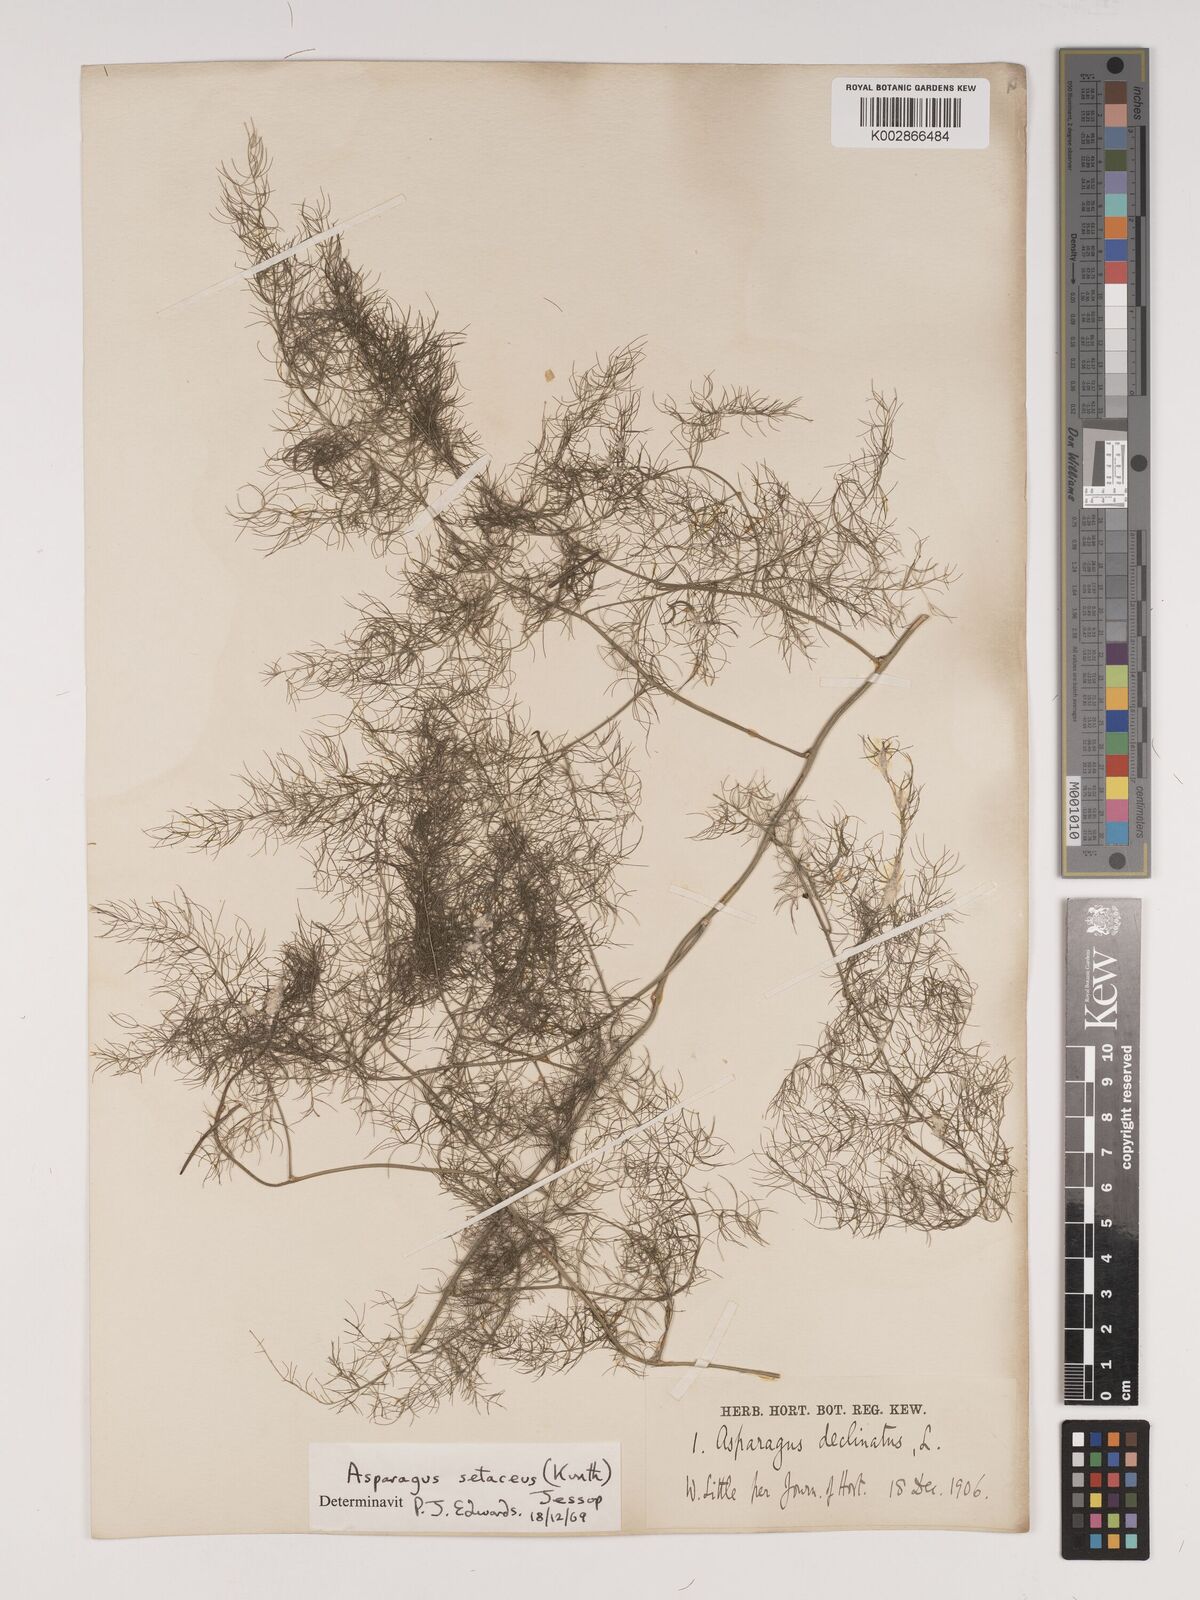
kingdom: Plantae
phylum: Tracheophyta
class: Liliopsida
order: Asparagales
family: Asparagaceae
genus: Asparagus
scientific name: Asparagus setaceus
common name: Common asparagus fern
